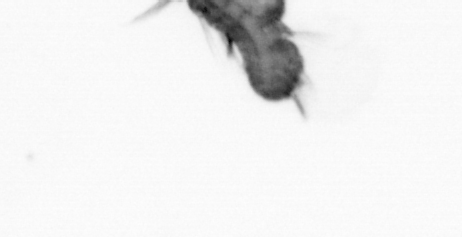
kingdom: Animalia
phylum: Annelida
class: Polychaeta
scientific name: Polychaeta
